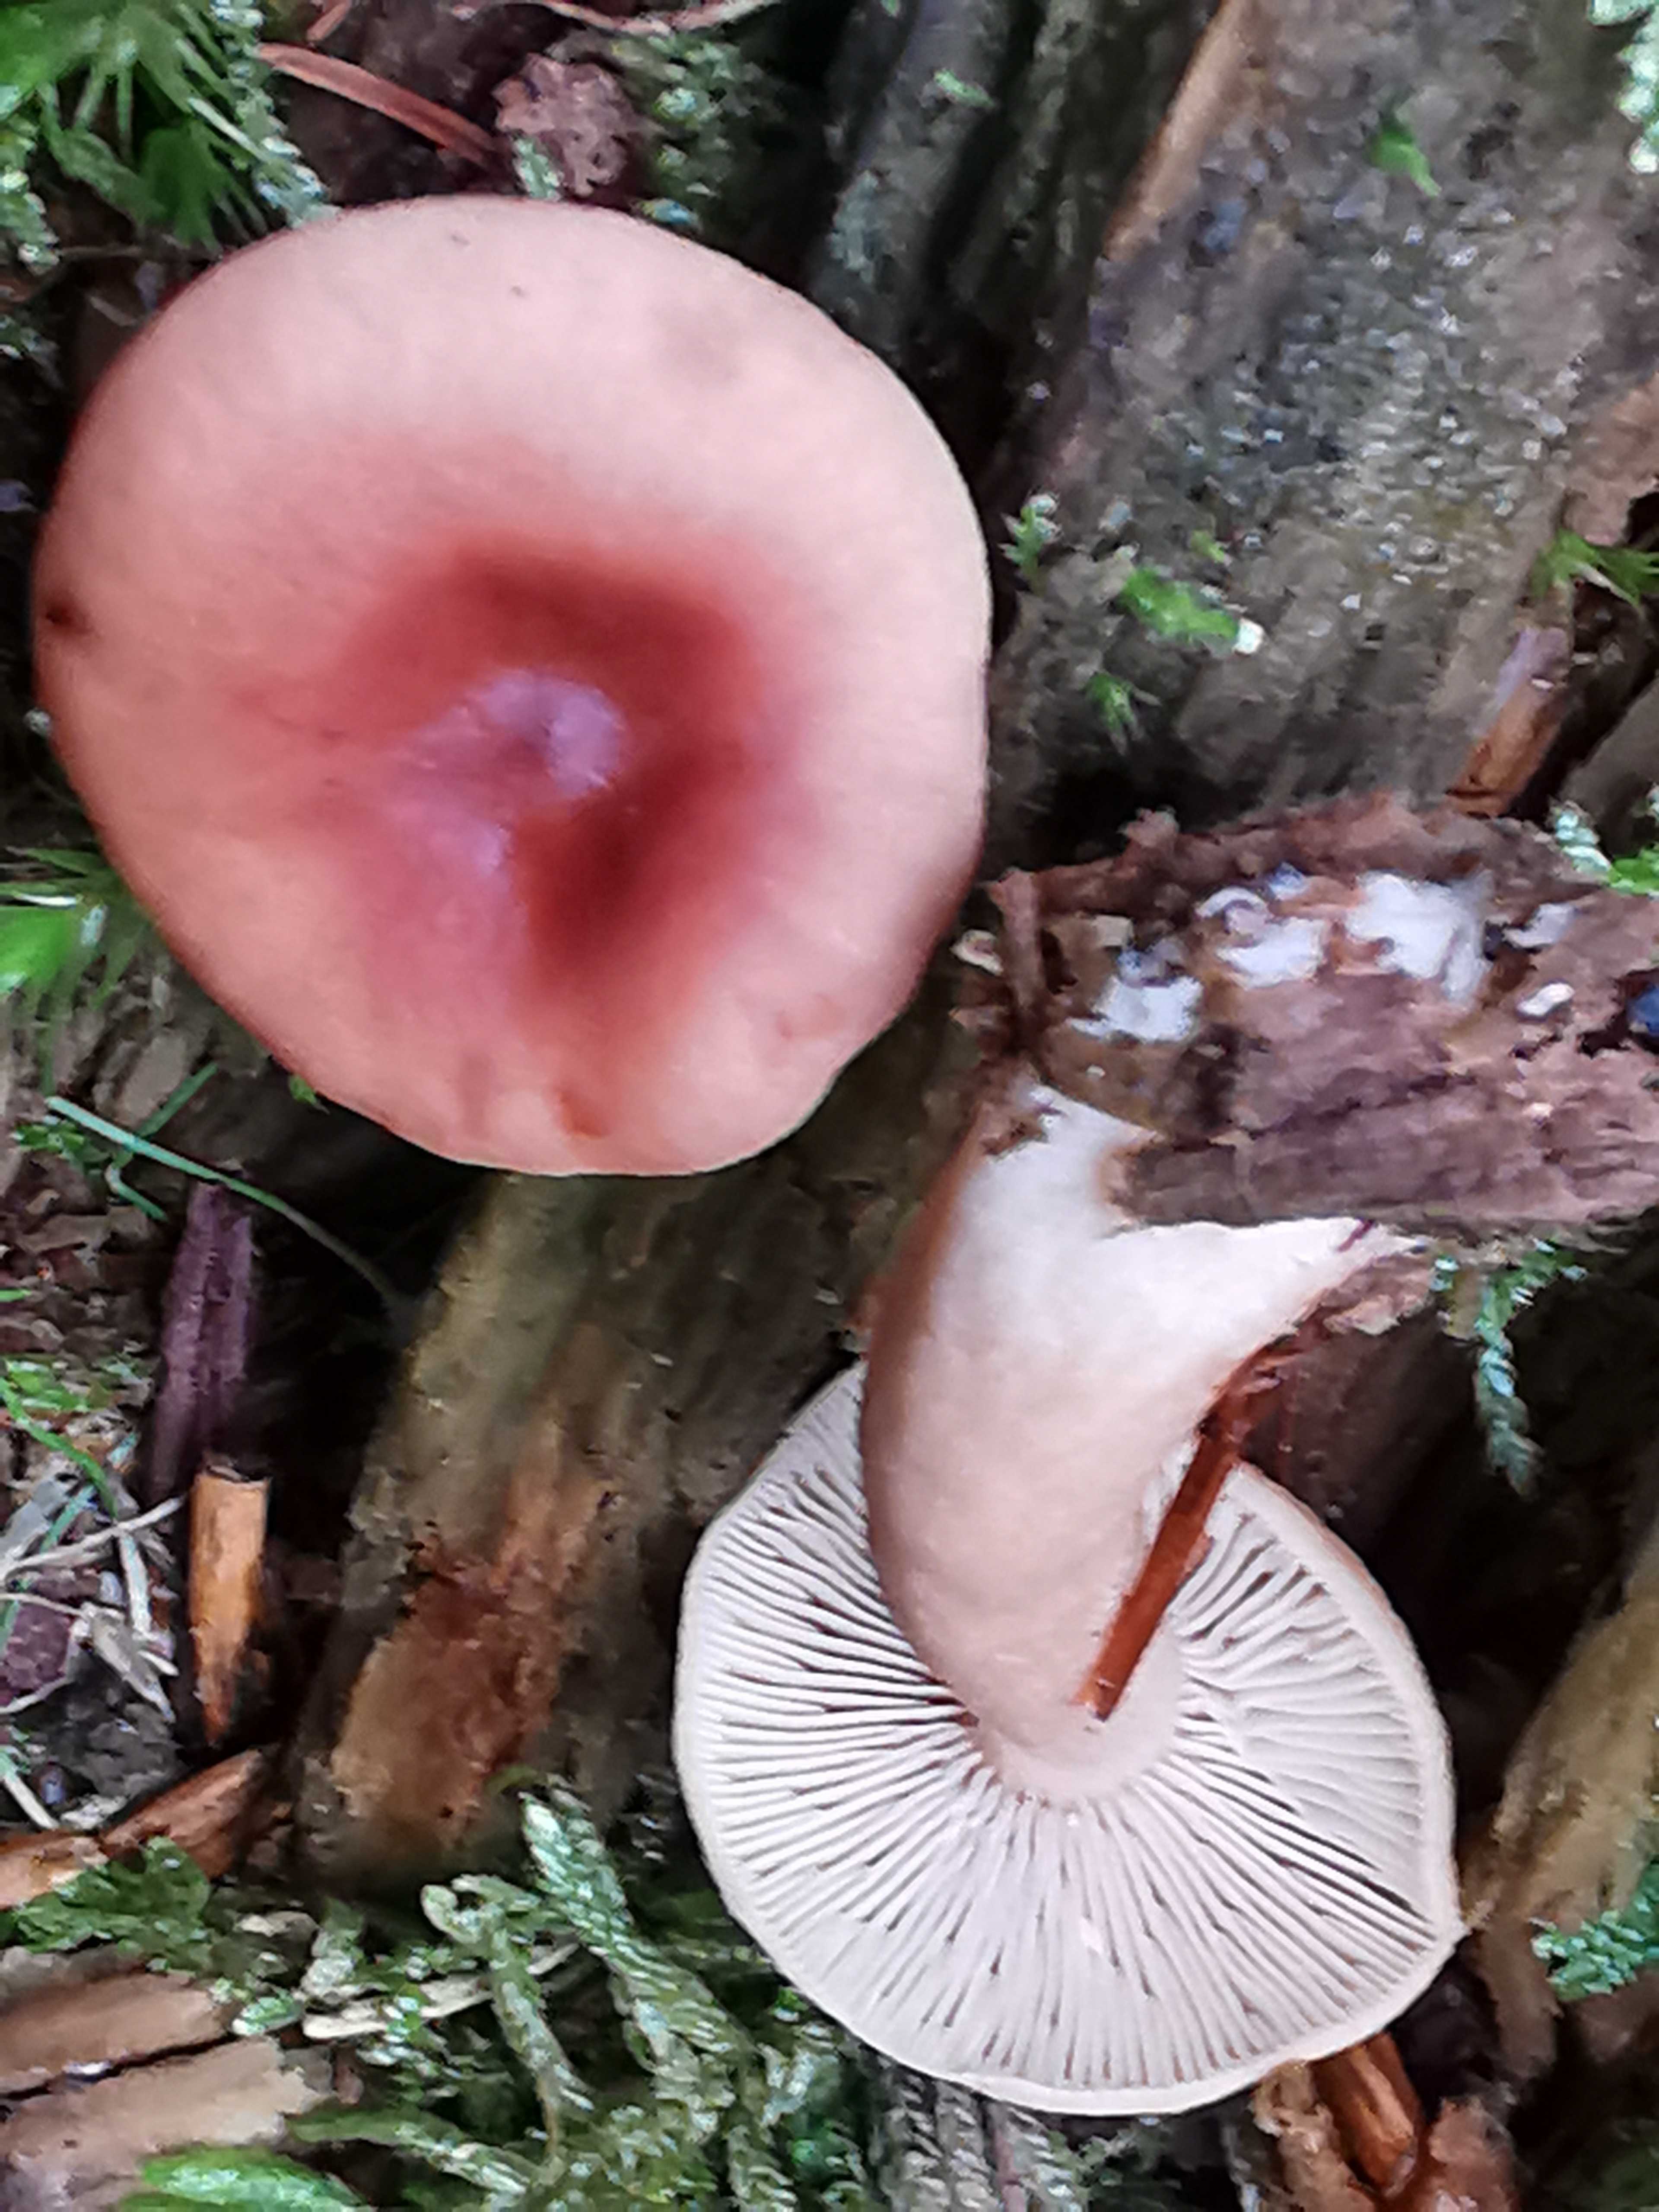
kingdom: Fungi
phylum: Basidiomycota
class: Agaricomycetes
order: Russulales
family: Russulaceae
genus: Lactarius
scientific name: Lactarius tabidus
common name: rynket mælkehat
